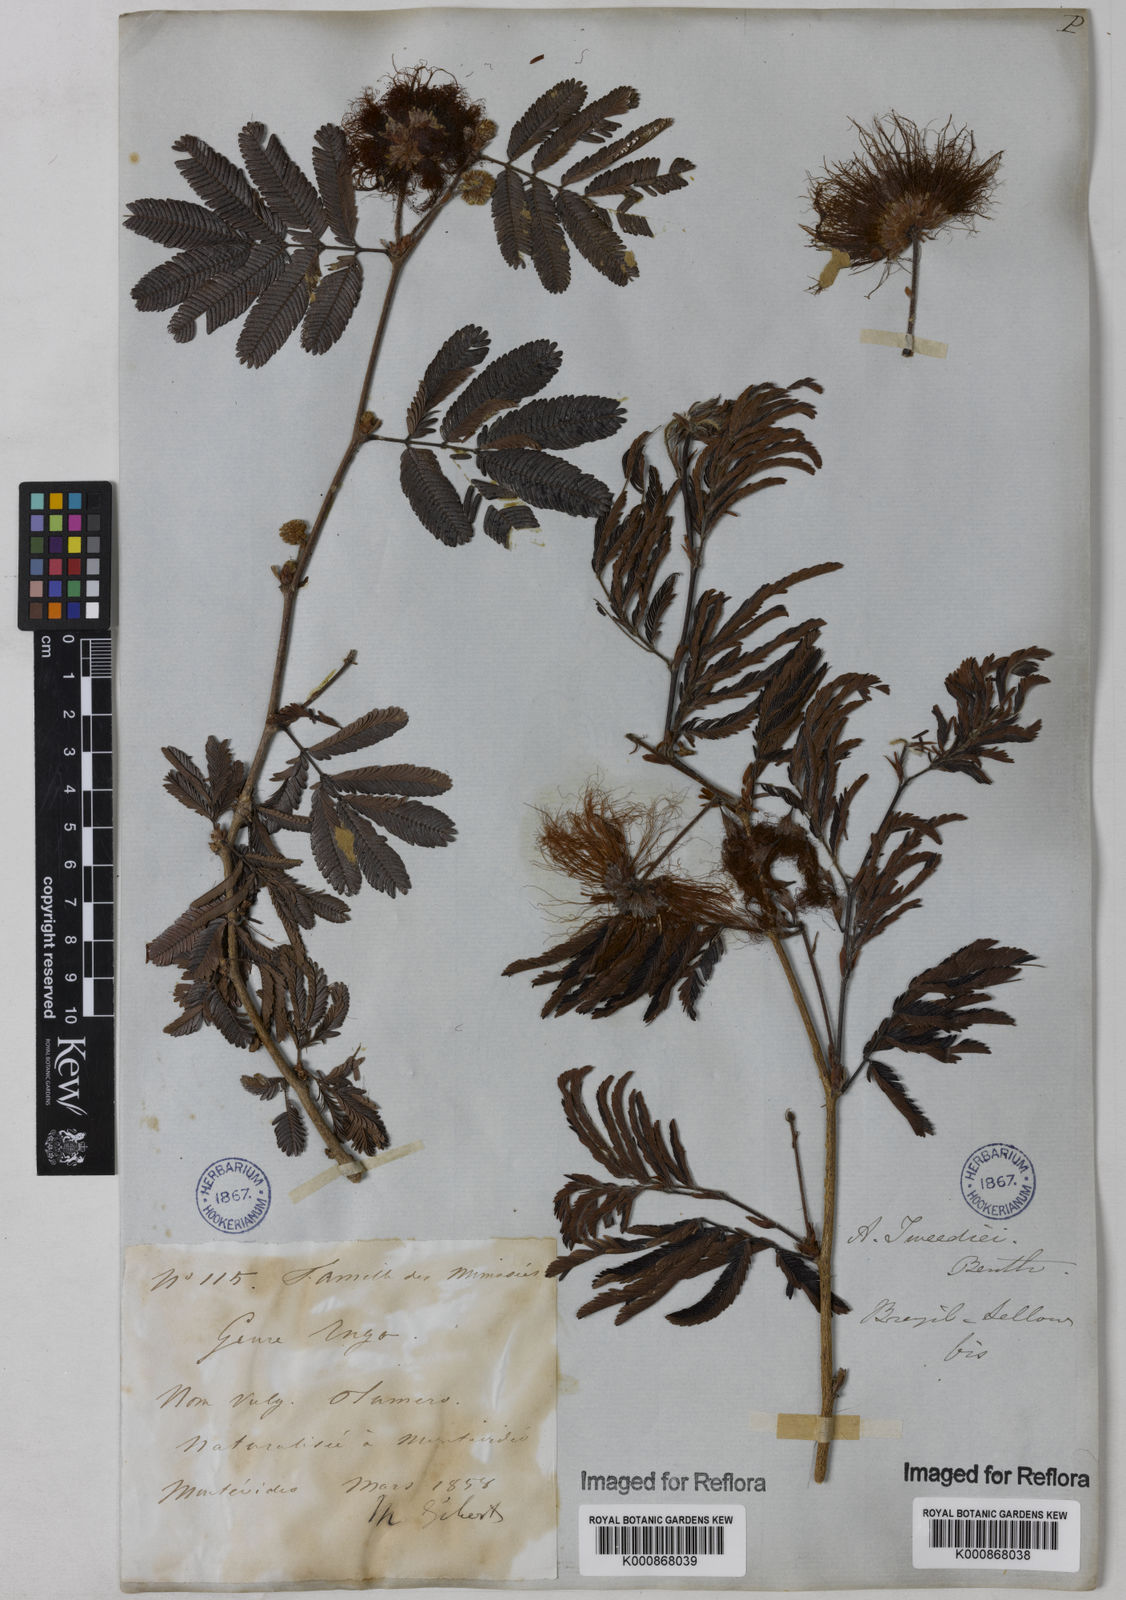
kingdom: Plantae
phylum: Tracheophyta
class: Magnoliopsida
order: Fabales
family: Fabaceae
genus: Calliandra
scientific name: Calliandra tweediei
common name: Mexican flamebush
